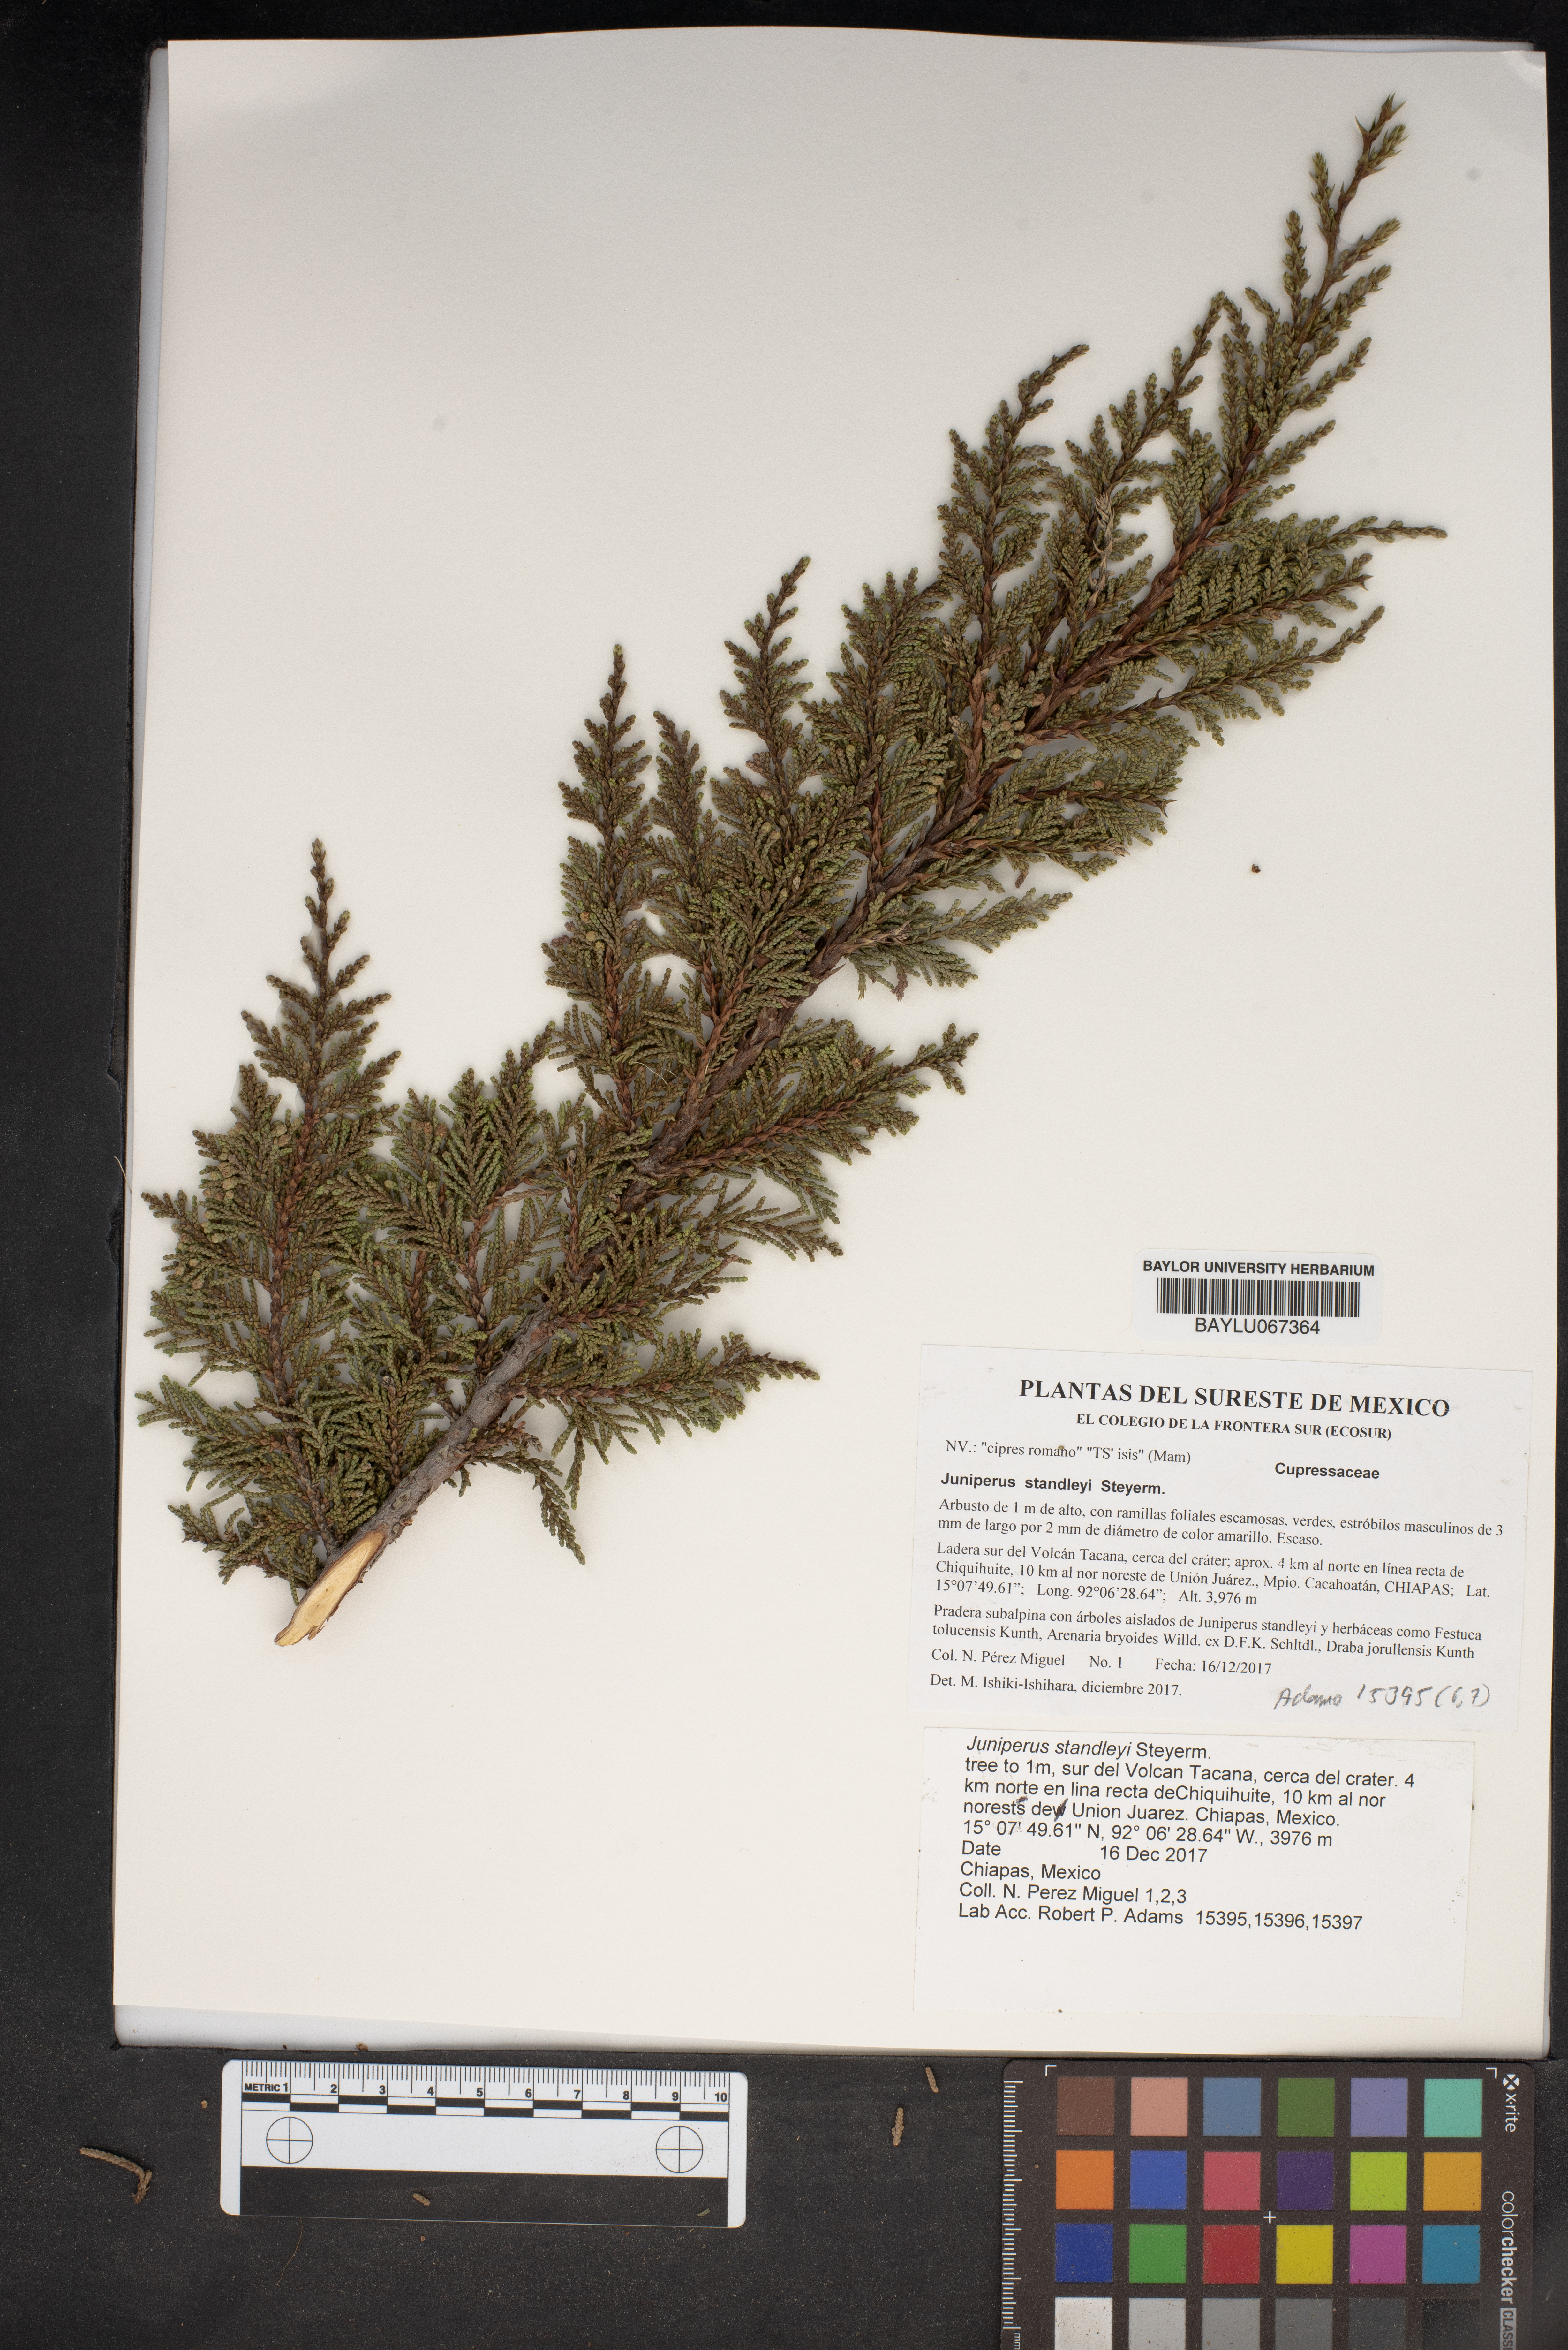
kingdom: Plantae
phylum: Tracheophyta
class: Pinopsida
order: Pinales
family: Cupressaceae
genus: Juniperus
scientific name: Juniperus standleyi
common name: Standley juniper
